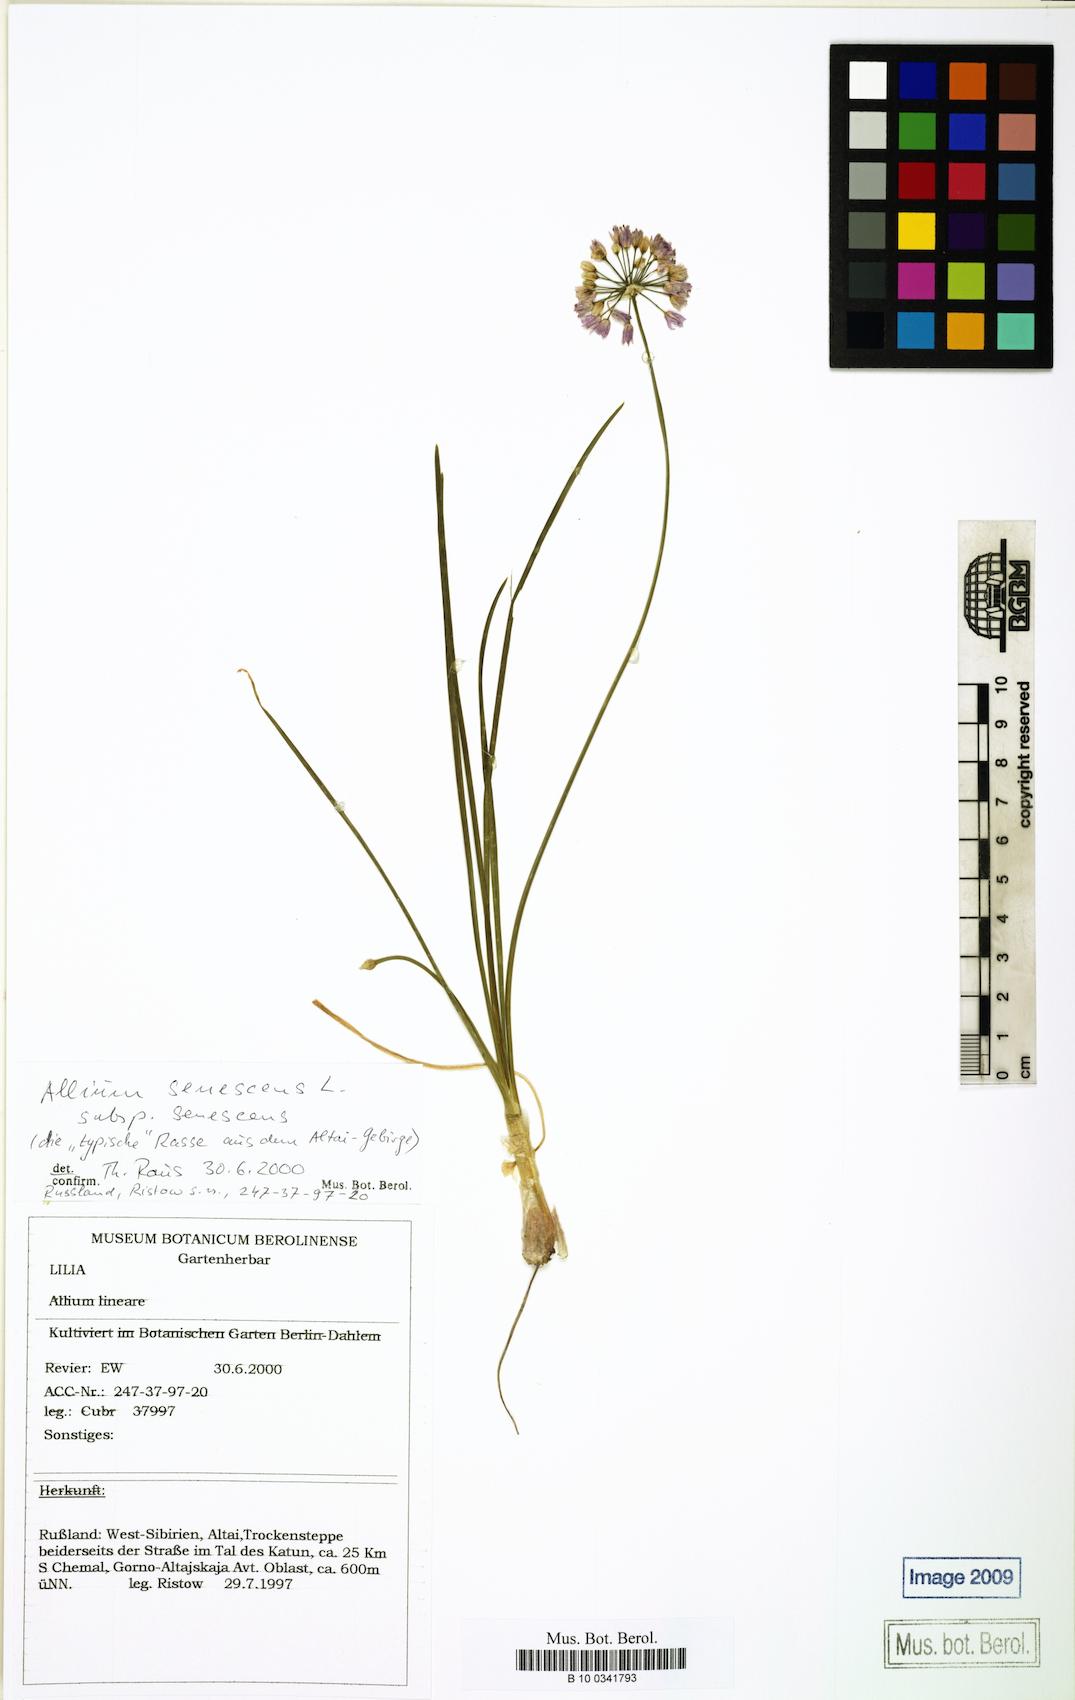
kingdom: Plantae
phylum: Tracheophyta
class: Liliopsida
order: Asparagales
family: Amaryllidaceae
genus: Allium
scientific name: Allium senescens
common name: German garlic
